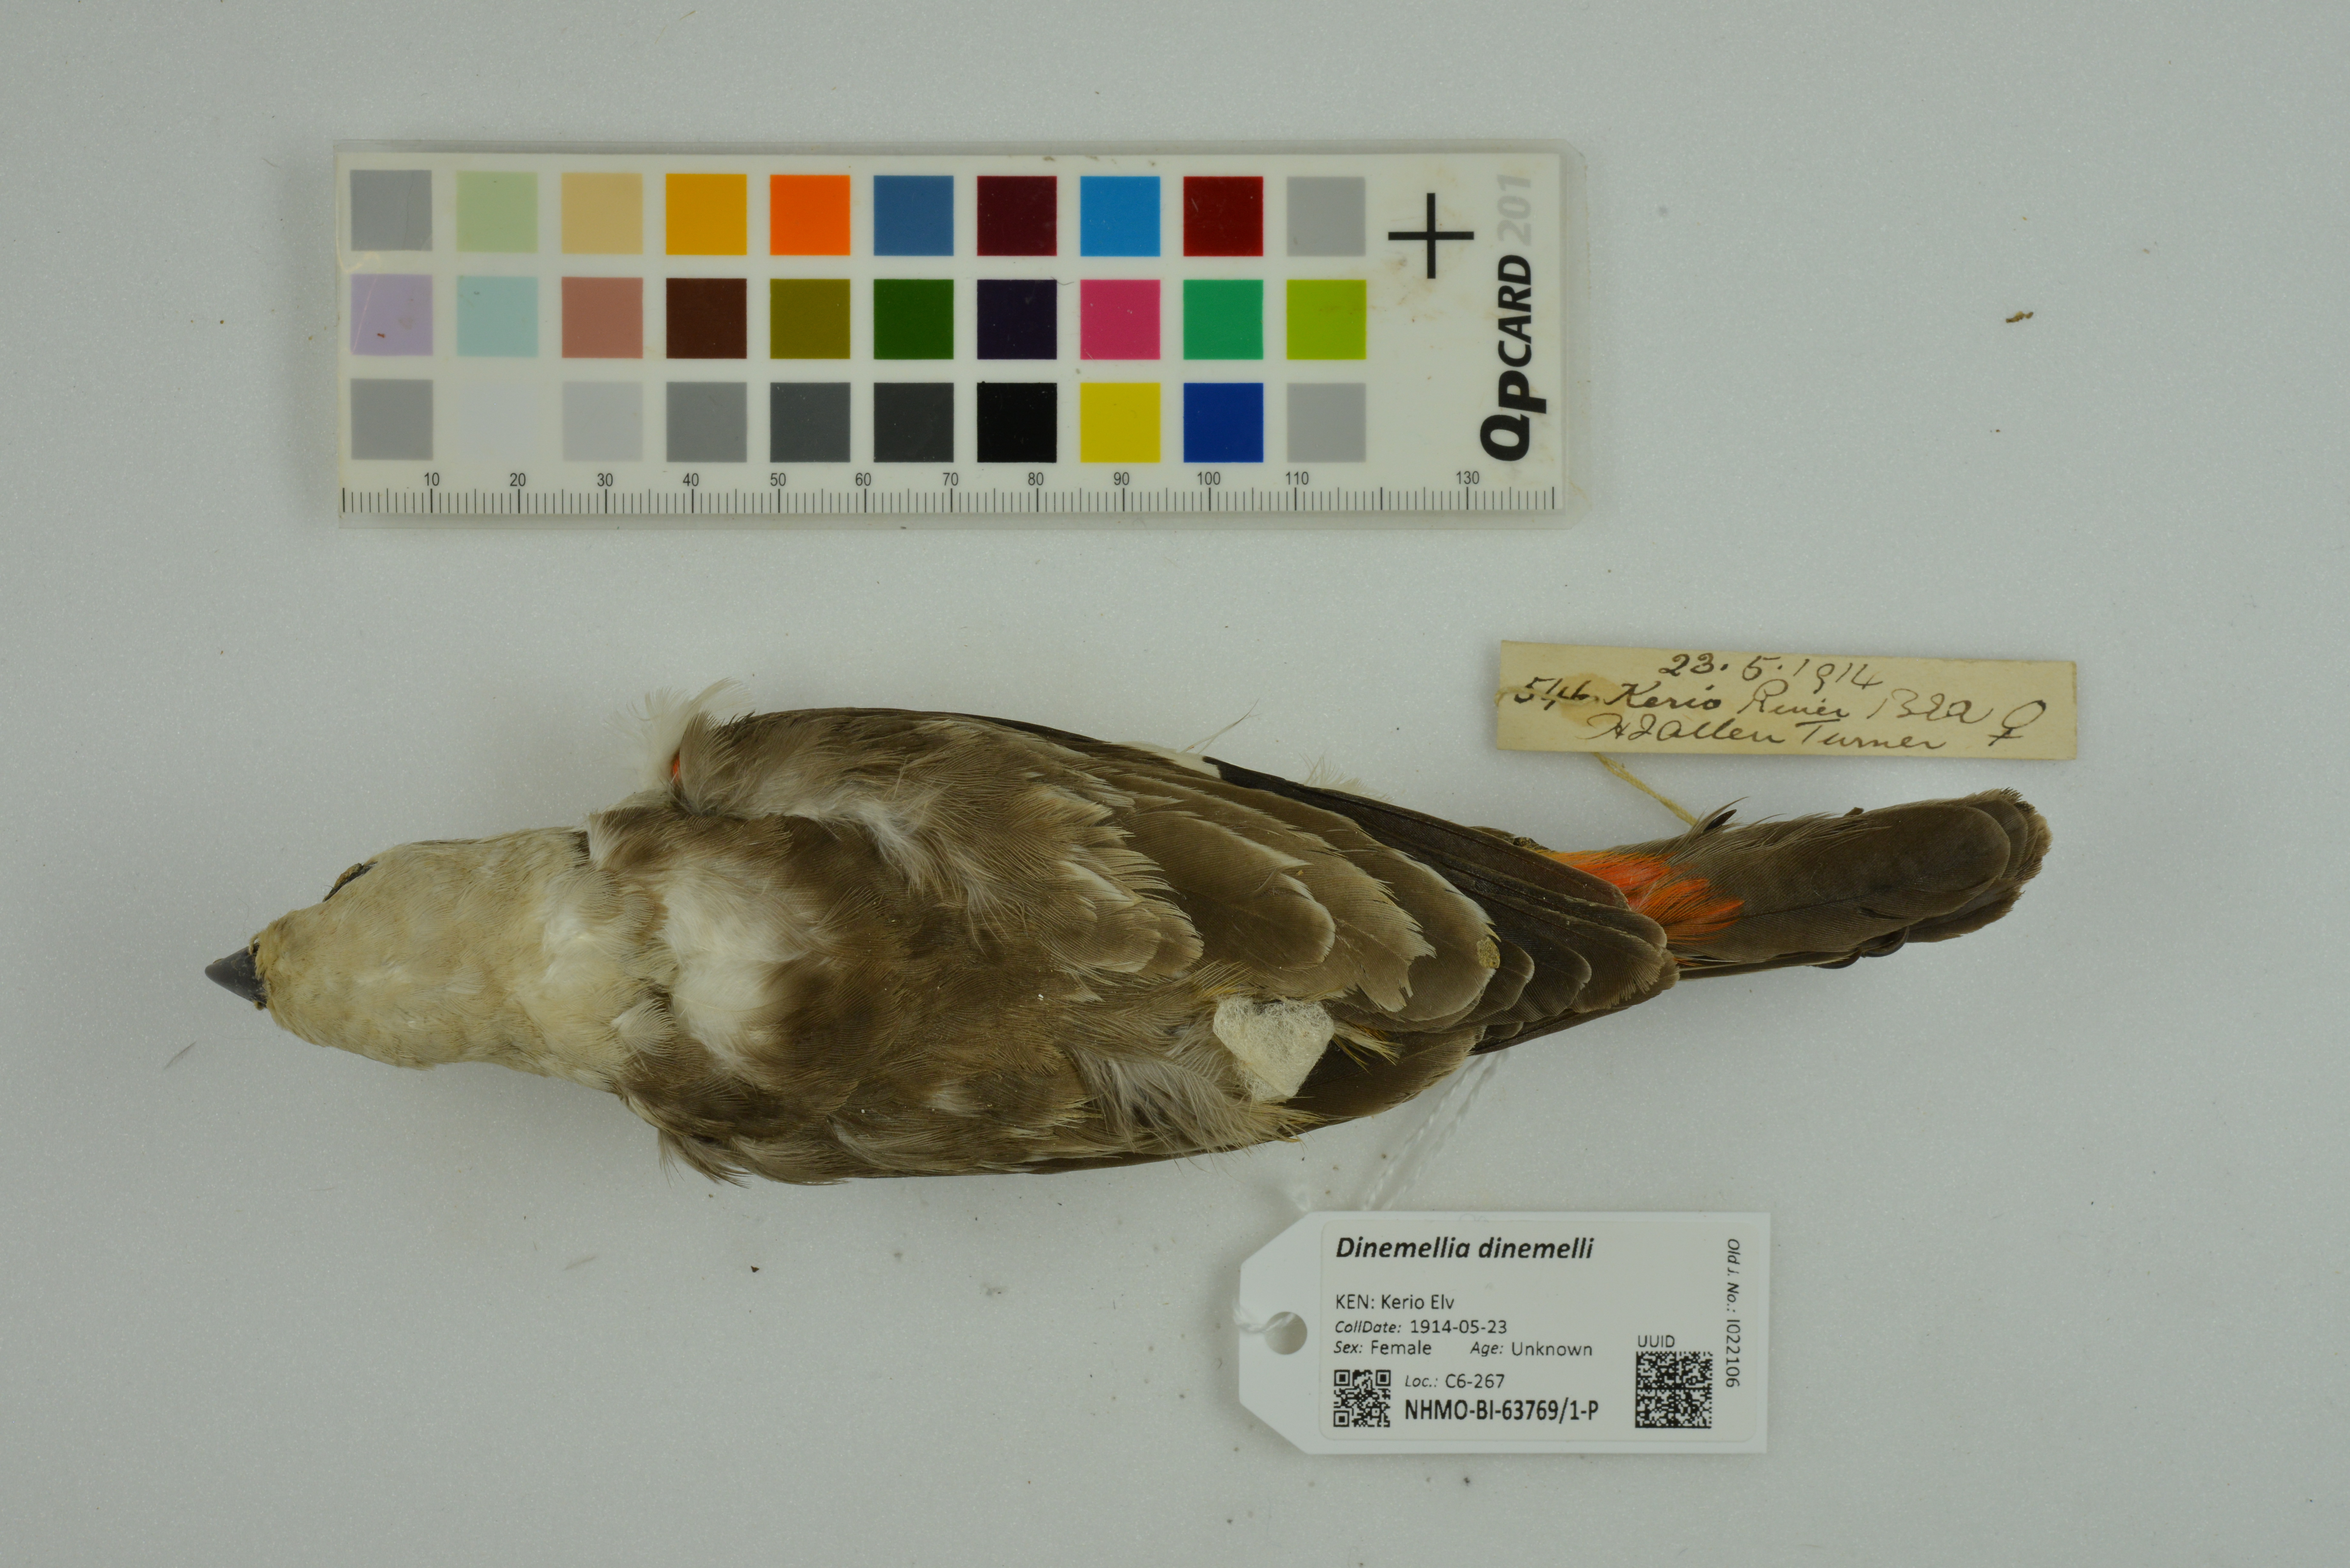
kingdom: Animalia
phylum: Chordata
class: Aves
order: Passeriformes
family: Ploceidae
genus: Dinemellia
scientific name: Dinemellia dinemelli
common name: White-headed buffalo weaver
